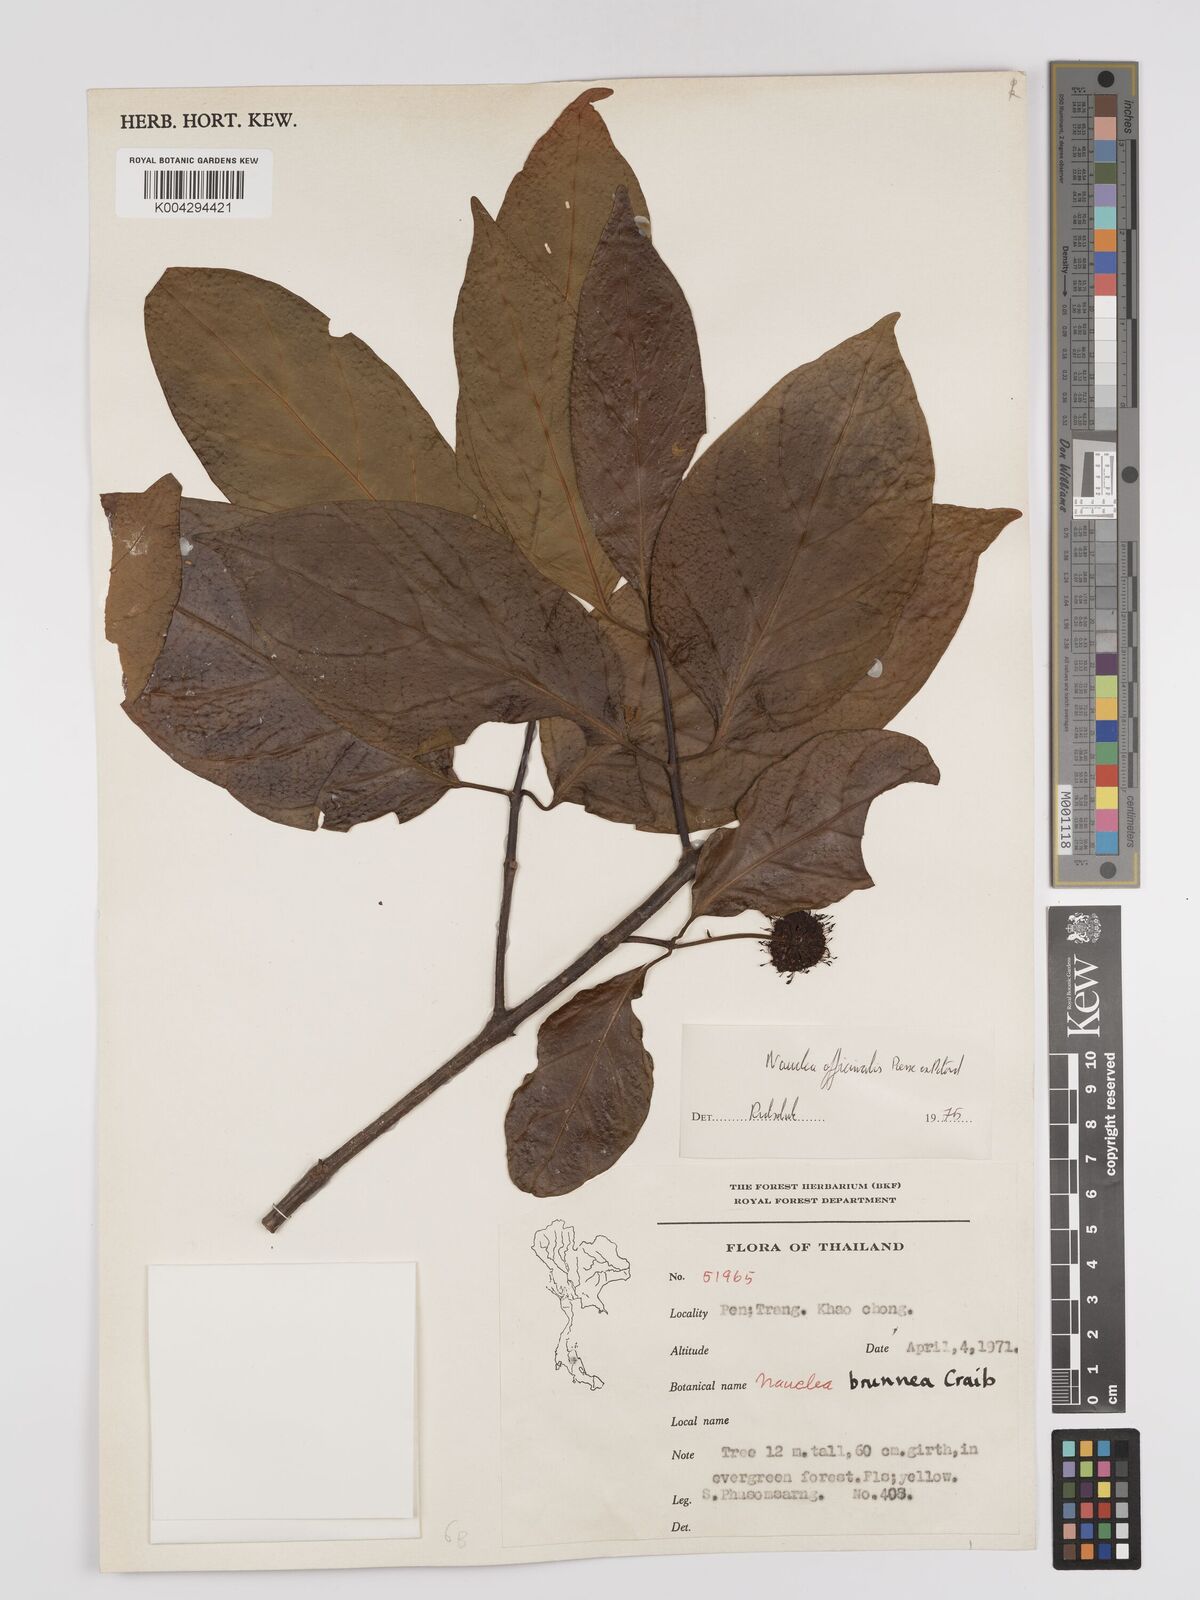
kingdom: Plantae
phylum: Tracheophyta
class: Magnoliopsida
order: Gentianales
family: Rubiaceae
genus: Nauclea
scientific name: Nauclea officinalis
